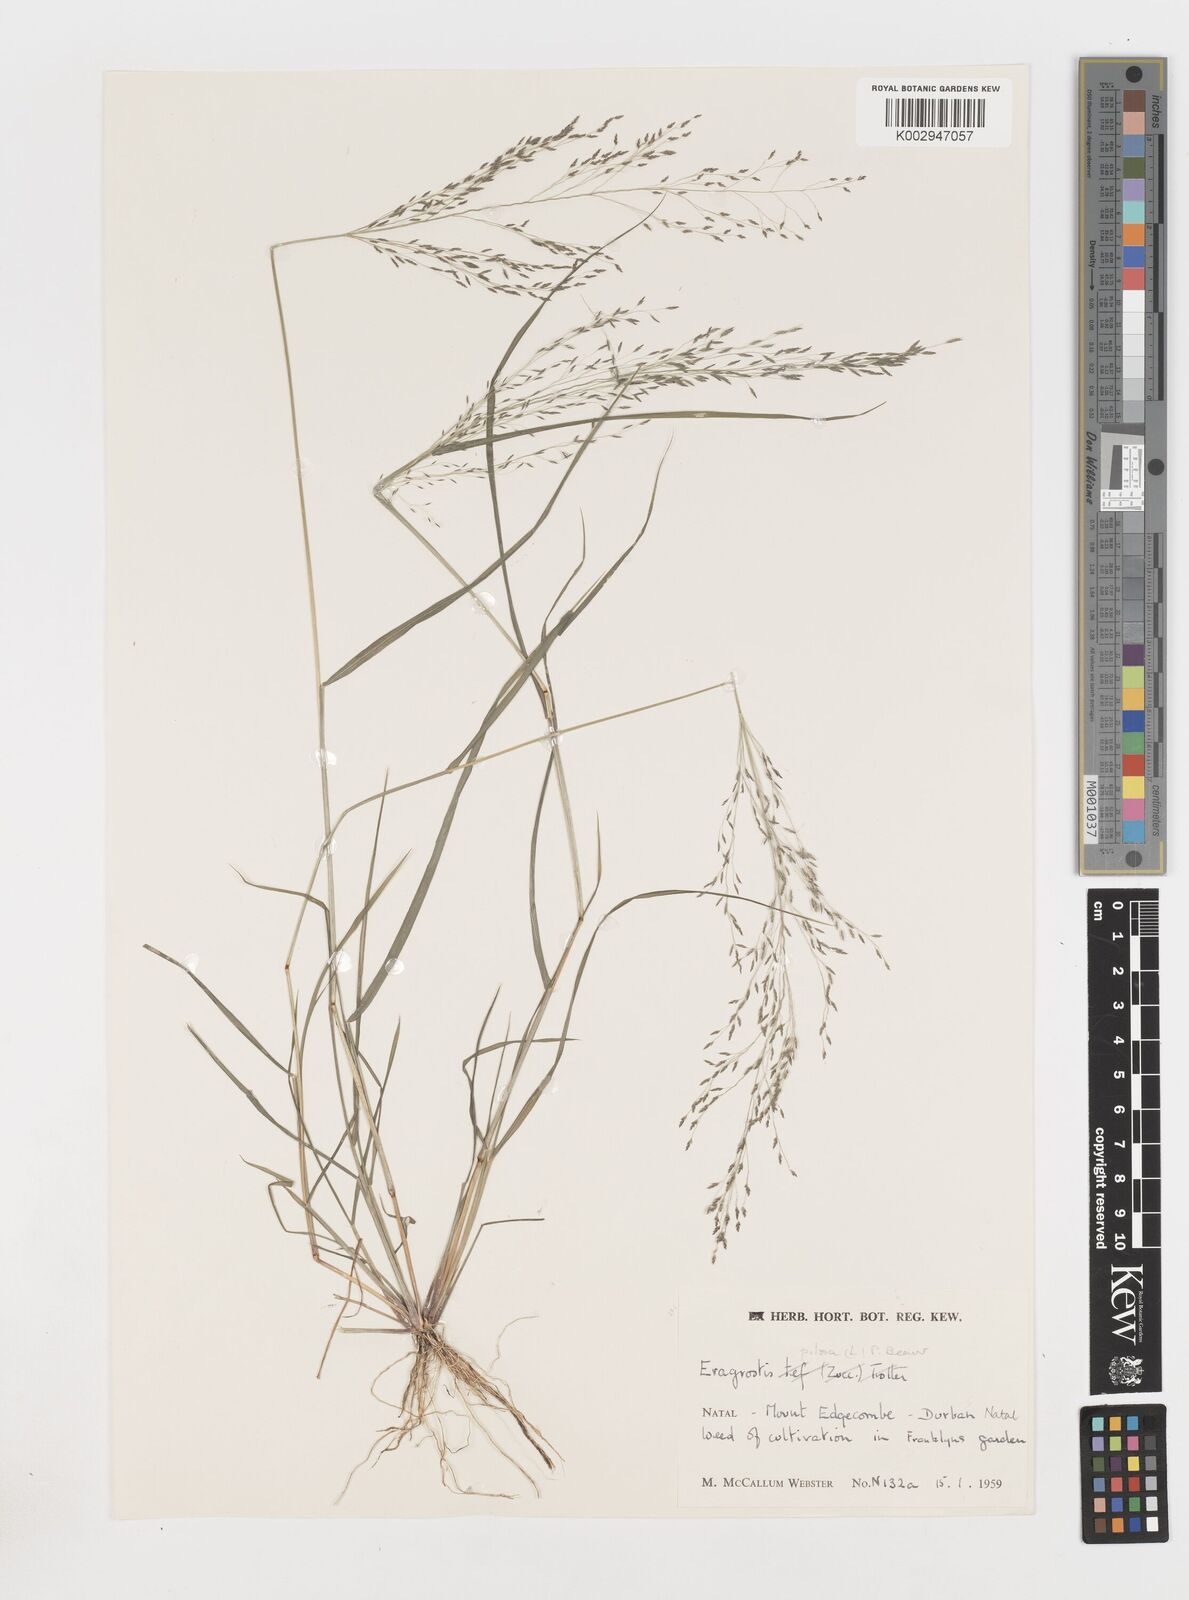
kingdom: Plantae
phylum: Tracheophyta
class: Liliopsida
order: Poales
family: Poaceae
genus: Eragrostis
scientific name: Eragrostis pilosa
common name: Indian lovegrass
